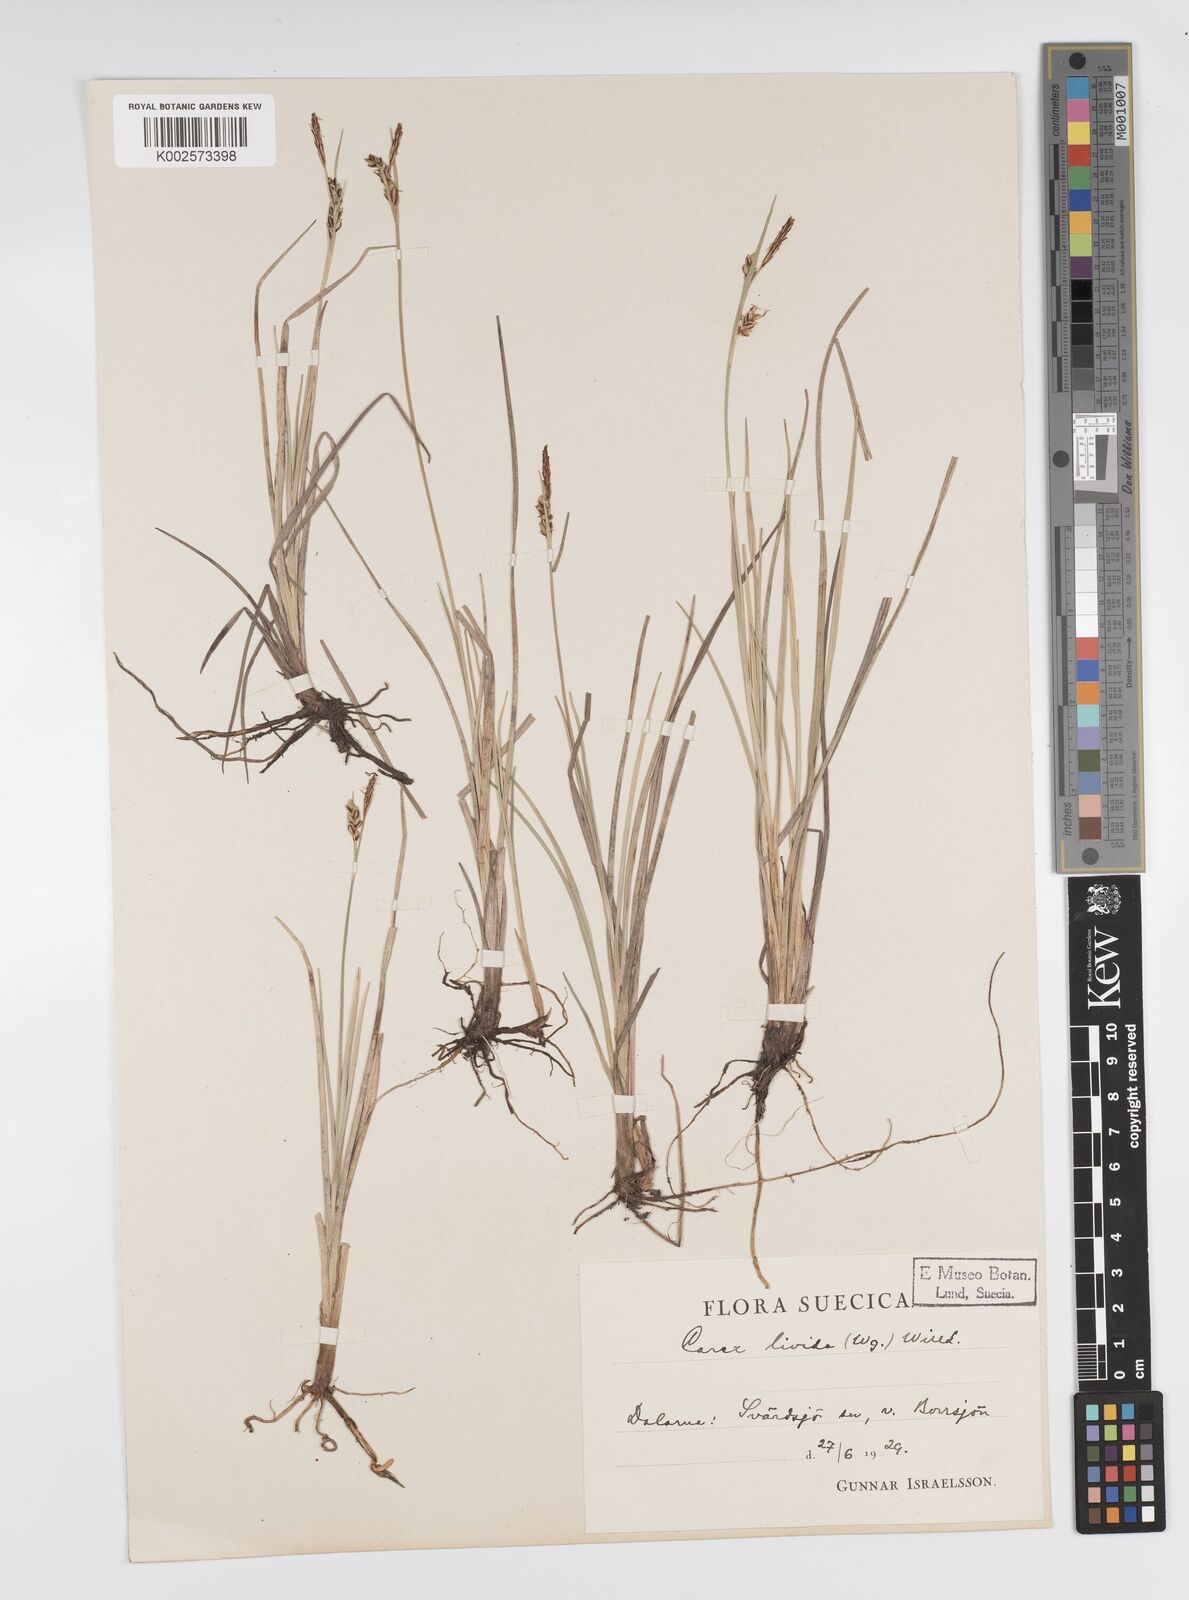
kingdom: Plantae
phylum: Tracheophyta
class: Liliopsida
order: Poales
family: Cyperaceae
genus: Carex
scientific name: Carex livida
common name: Livid sedge
